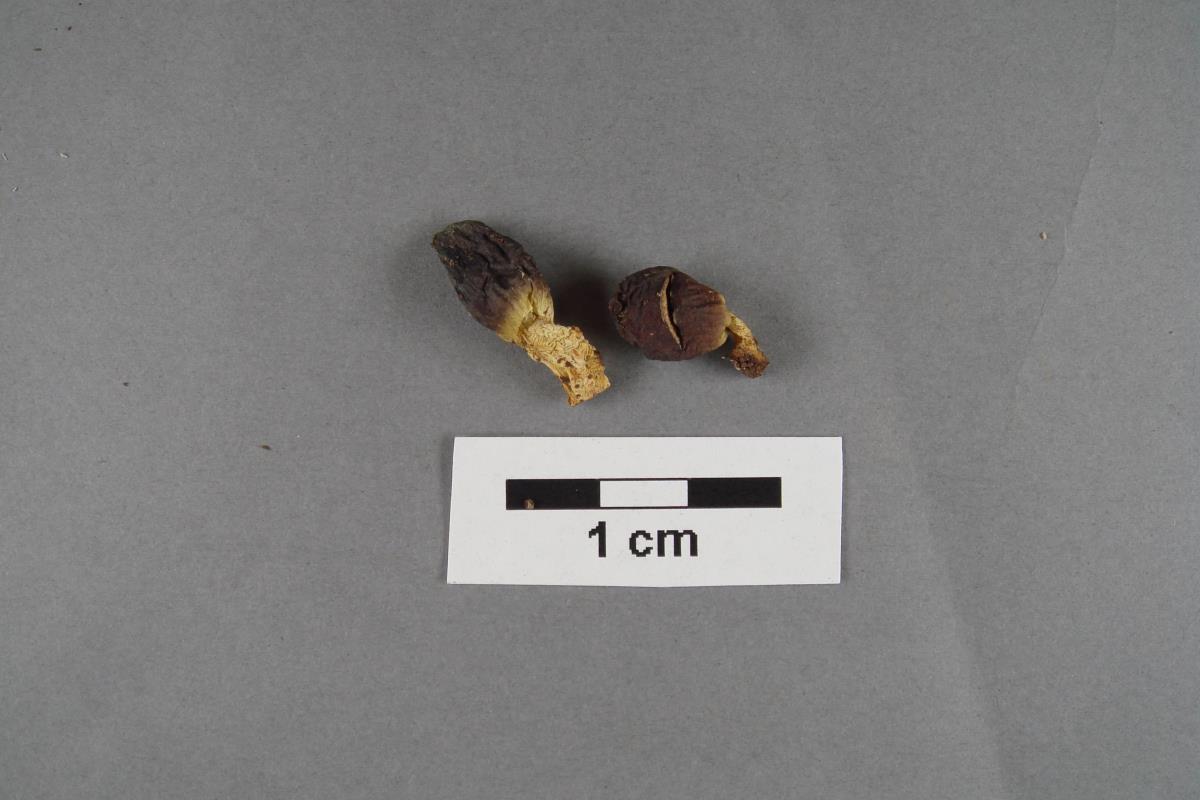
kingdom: Fungi
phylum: Basidiomycota
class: Agaricomycetes
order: Agaricales
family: Niaceae
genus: Flagelloscypha
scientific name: Flagelloscypha pseudopanacis
